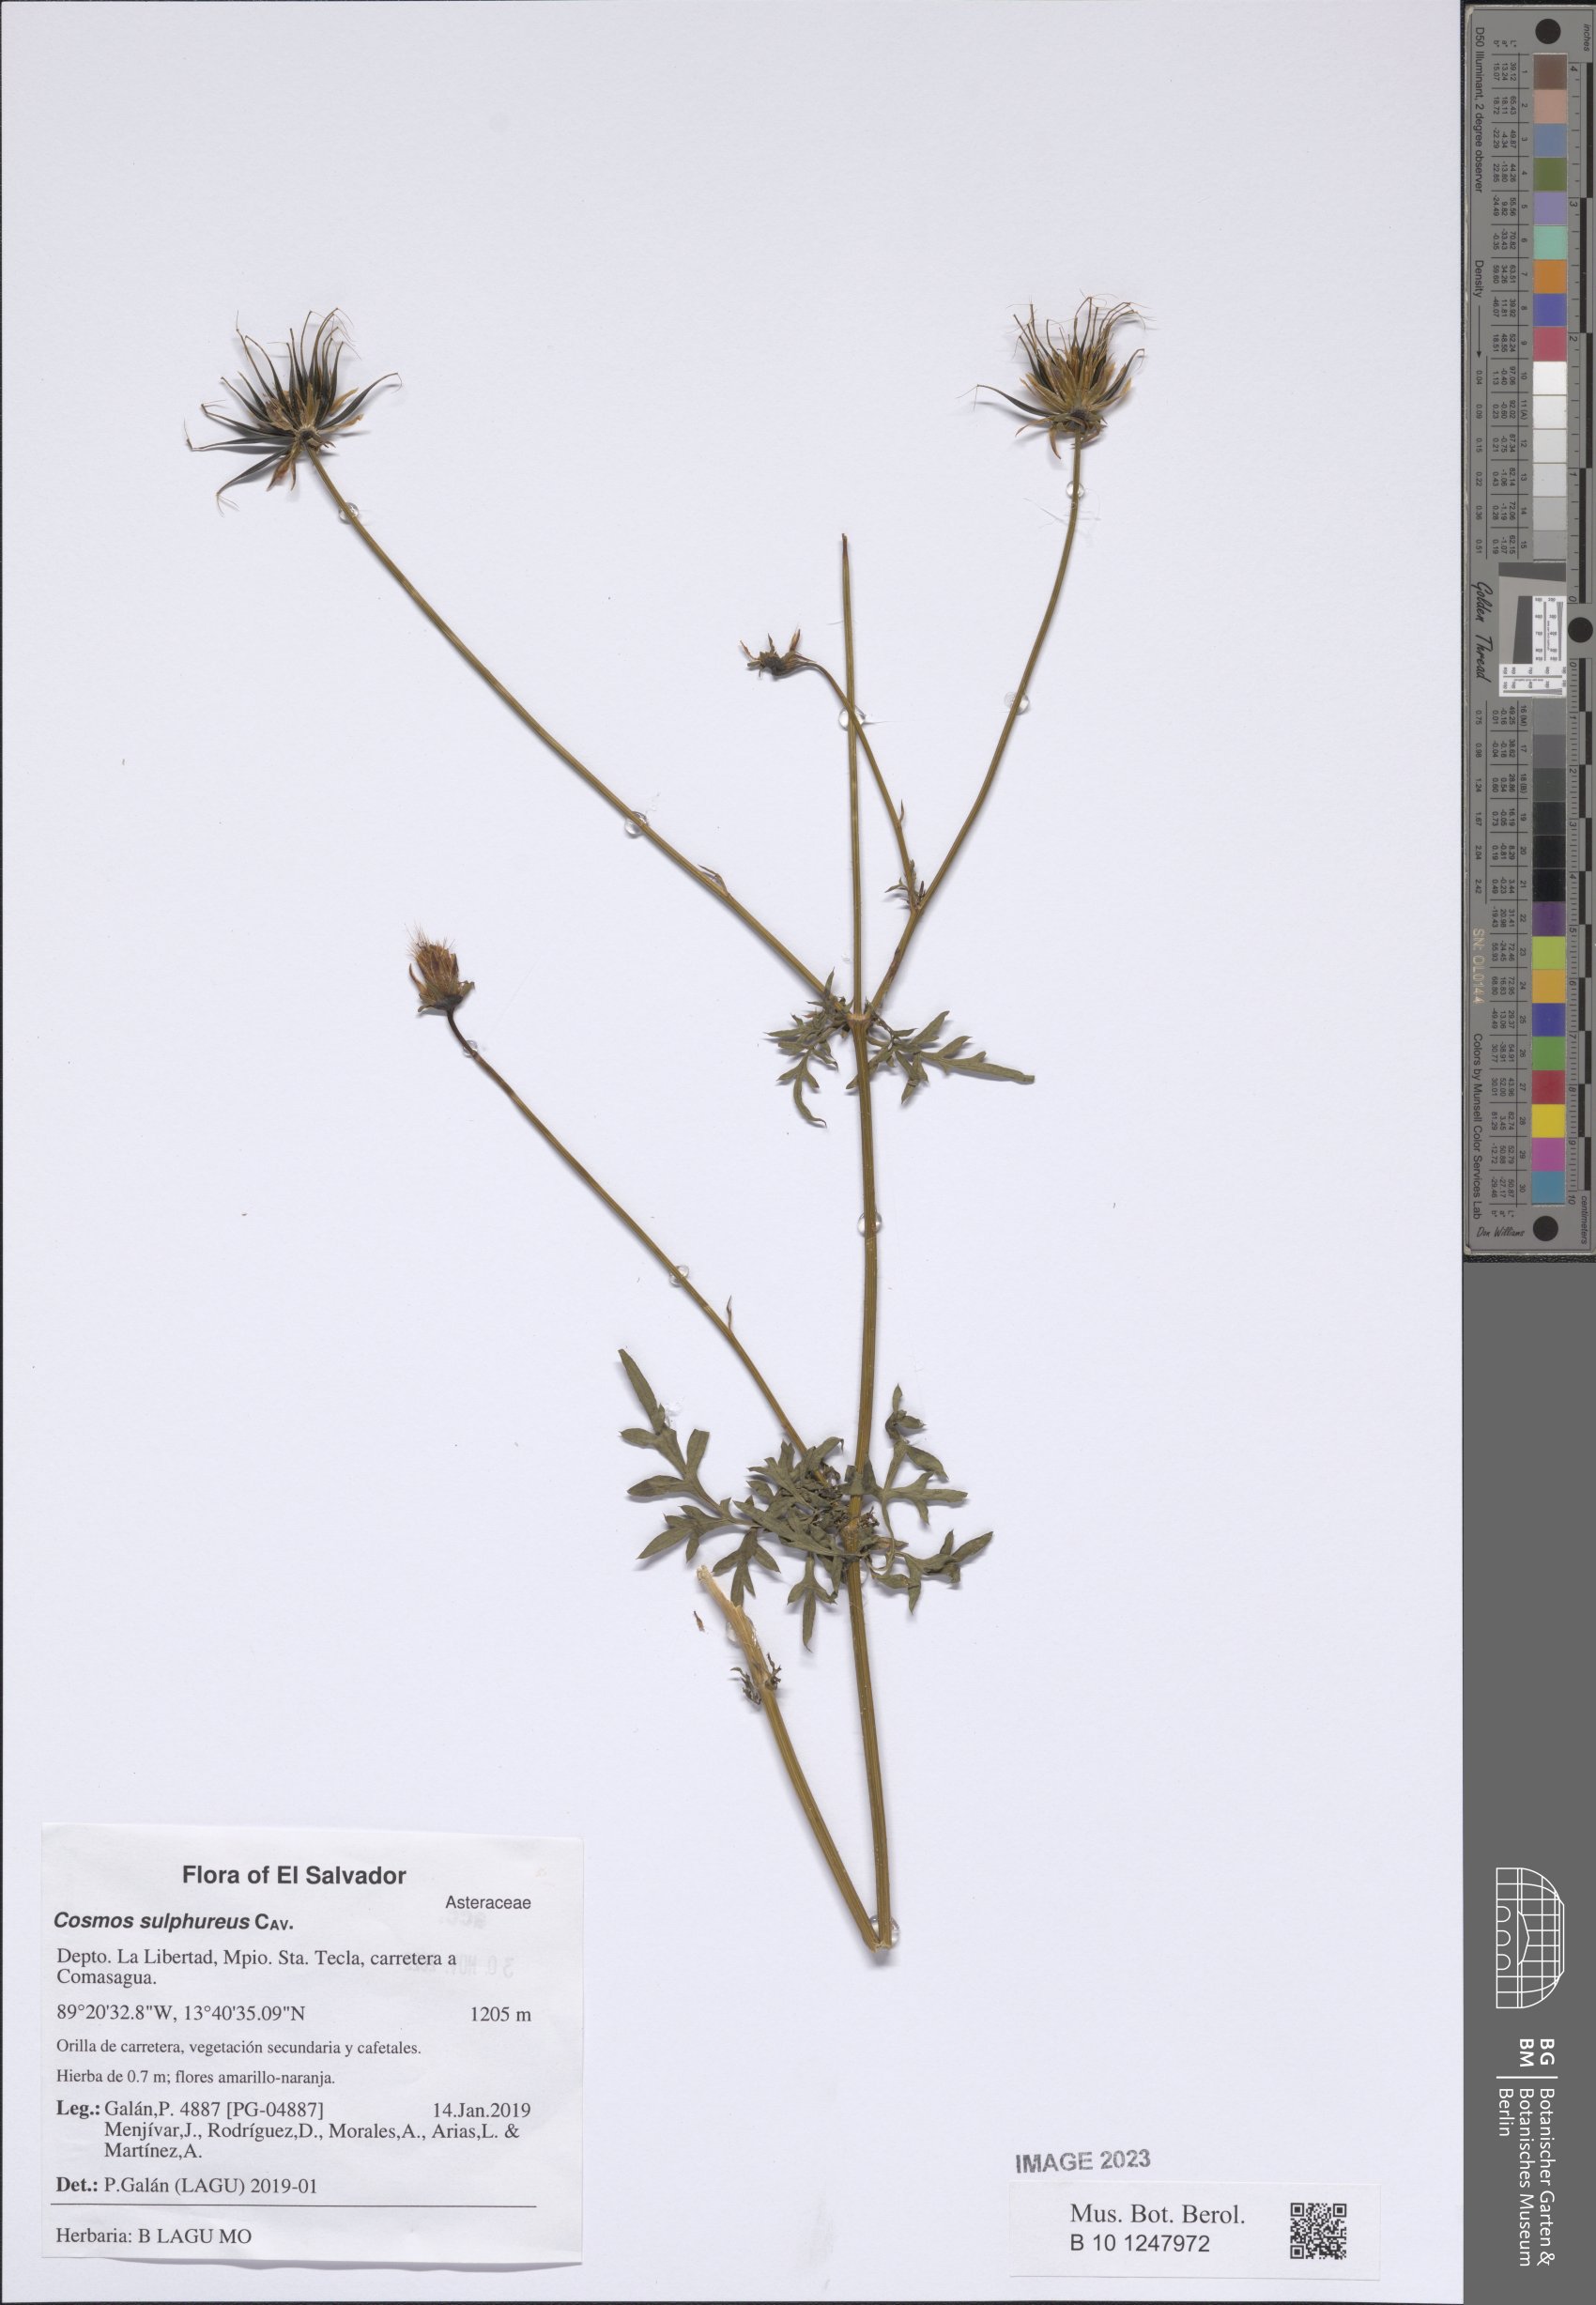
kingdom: Plantae
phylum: Tracheophyta
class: Magnoliopsida
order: Asterales
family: Asteraceae
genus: Cosmos
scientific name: Cosmos sulphureus
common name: Sulphur cosmos
